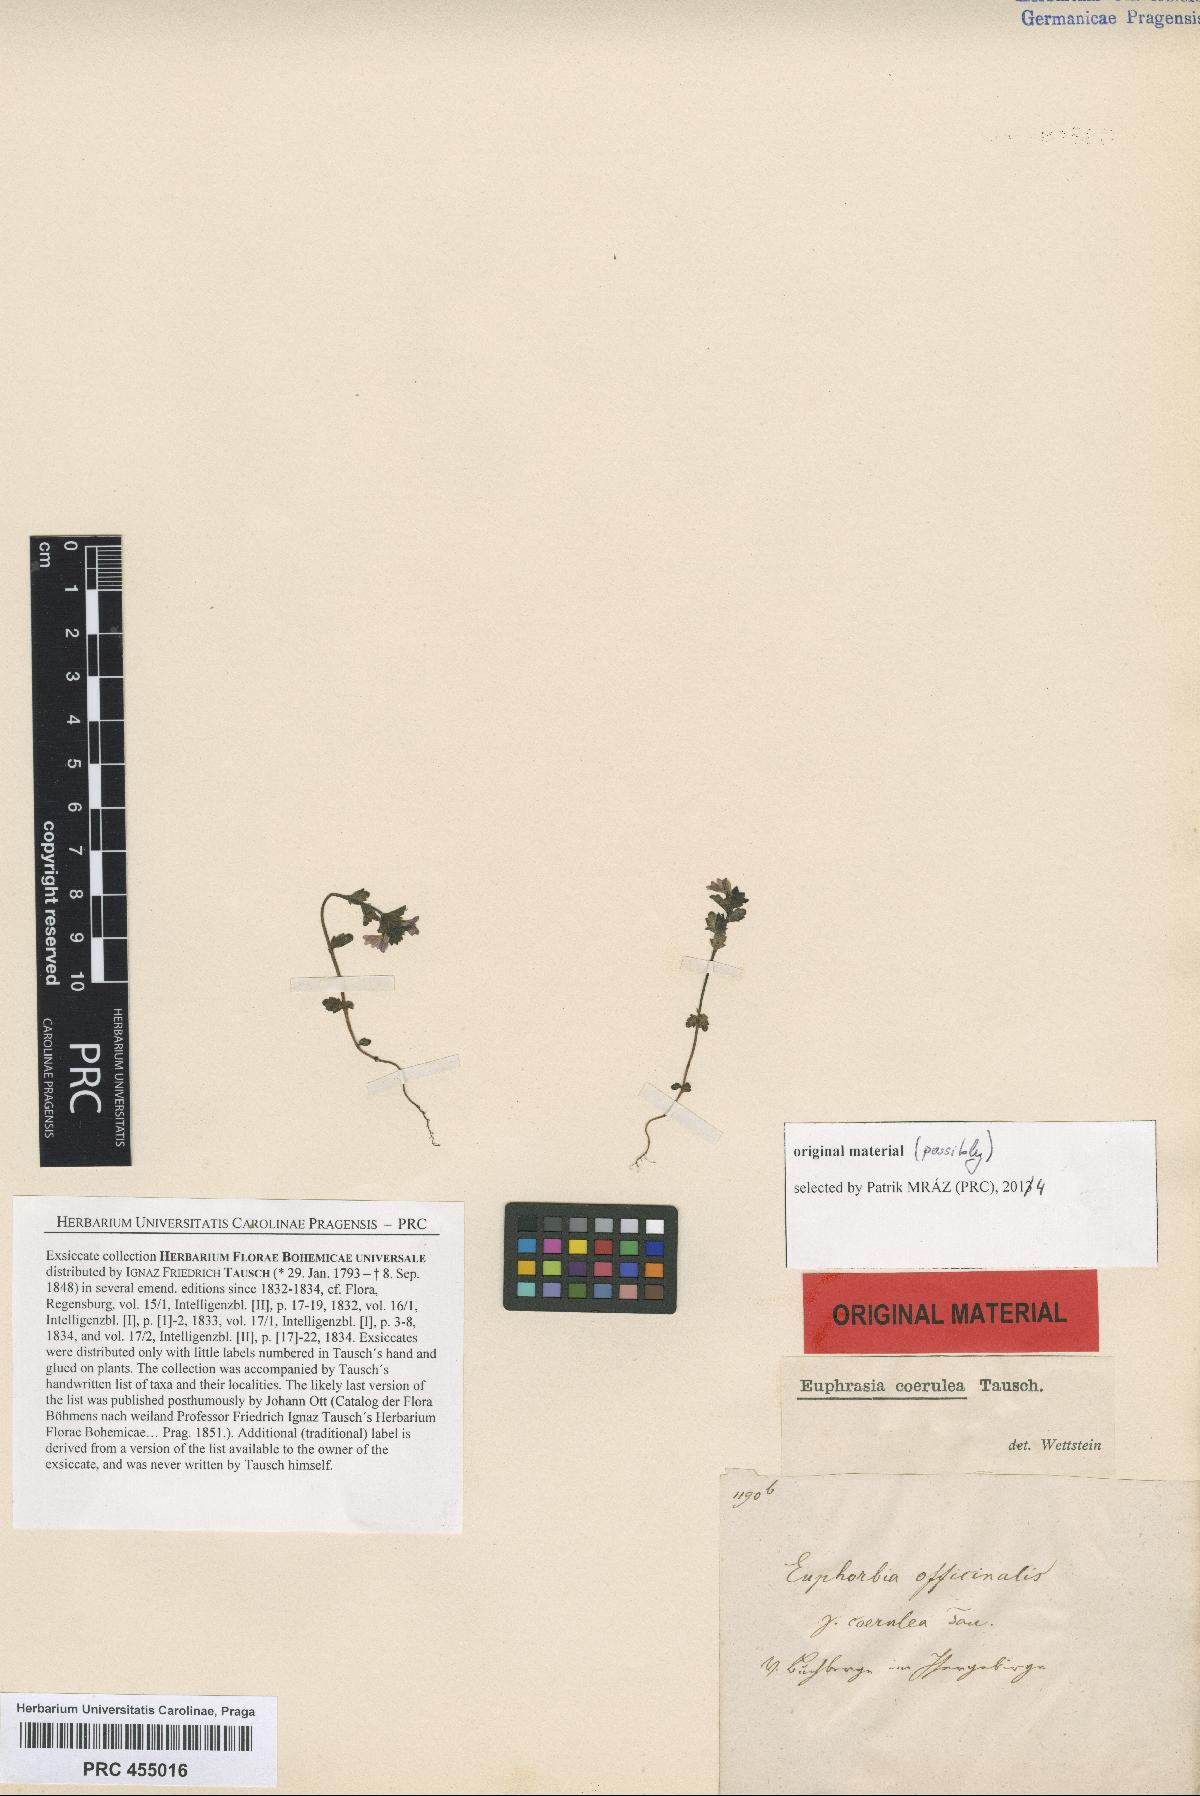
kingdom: Plantae
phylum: Tracheophyta
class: Magnoliopsida
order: Lamiales
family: Orobanchaceae
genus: Euphrasia
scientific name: Euphrasia nemorosa
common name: Common eyebright
